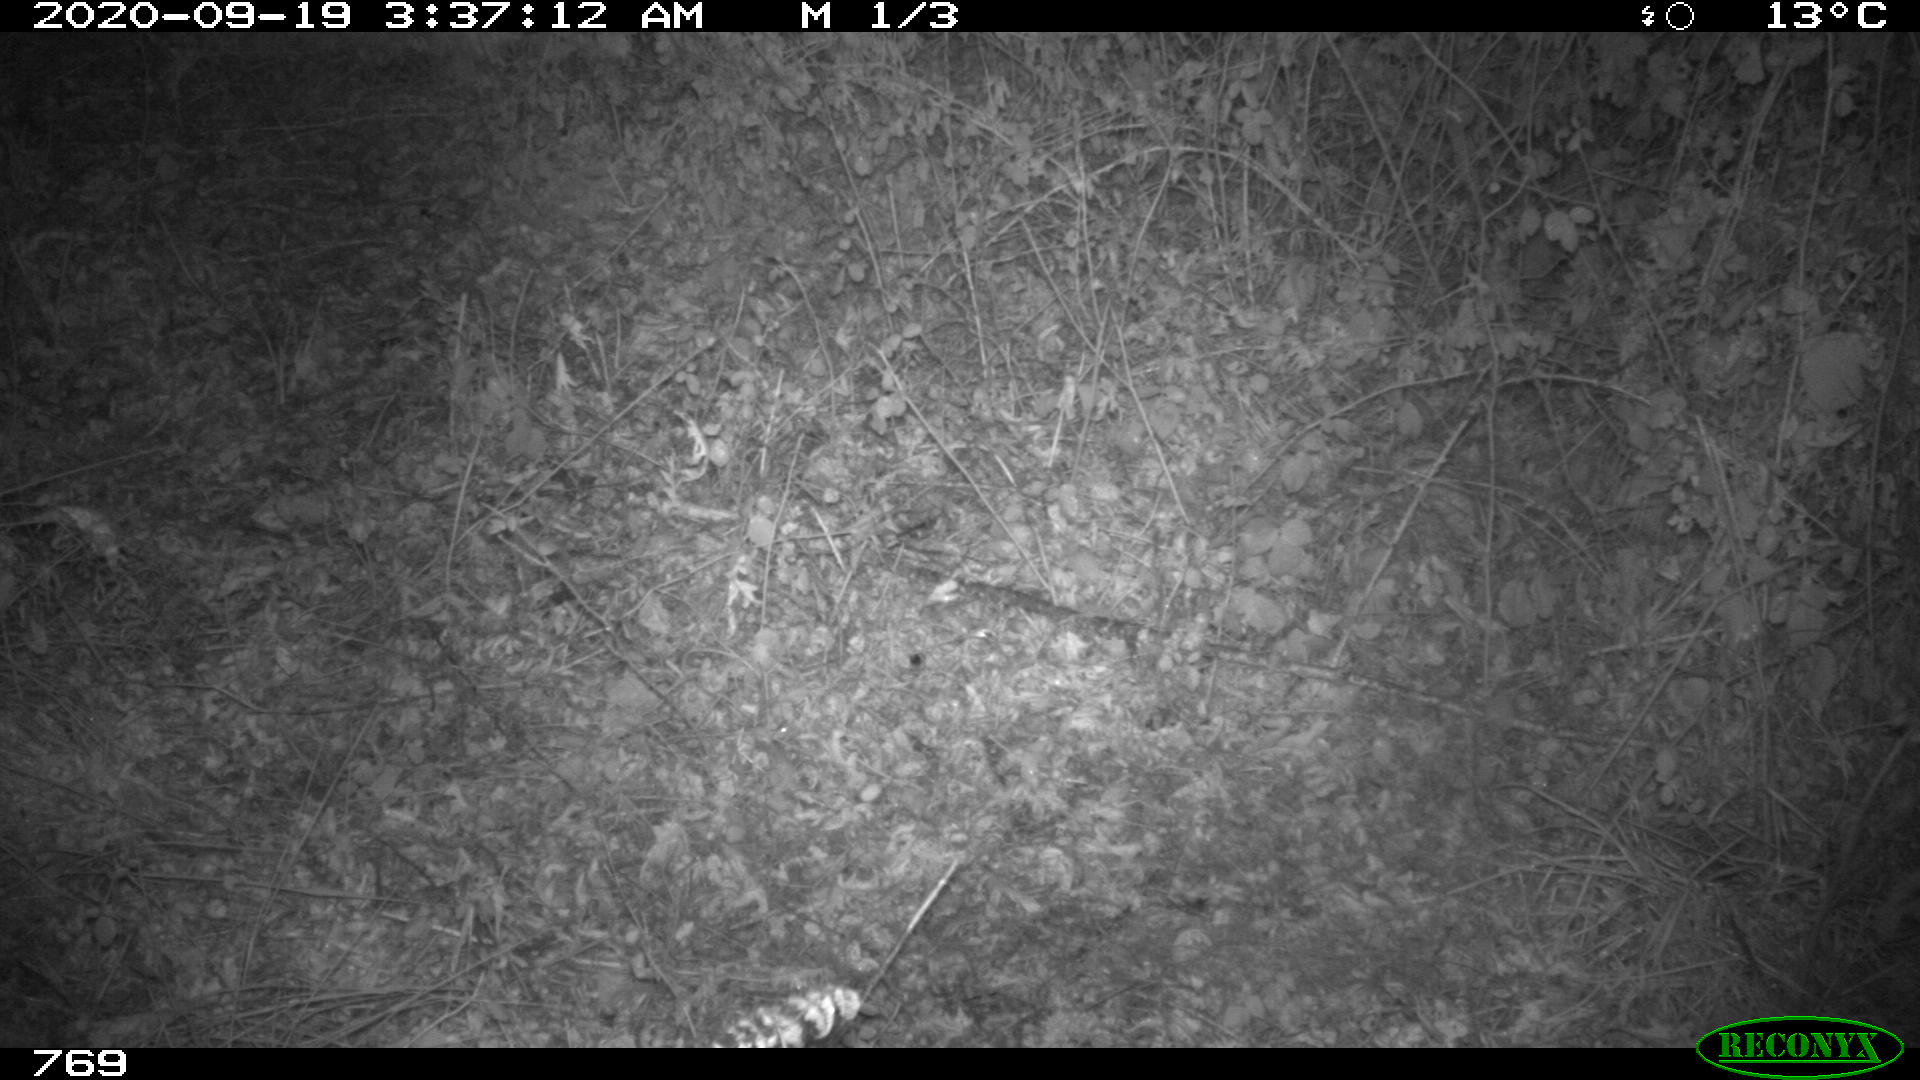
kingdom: Animalia
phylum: Chordata
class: Mammalia
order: Artiodactyla
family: Cervidae
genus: Capreolus
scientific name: Capreolus capreolus
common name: Western roe deer
